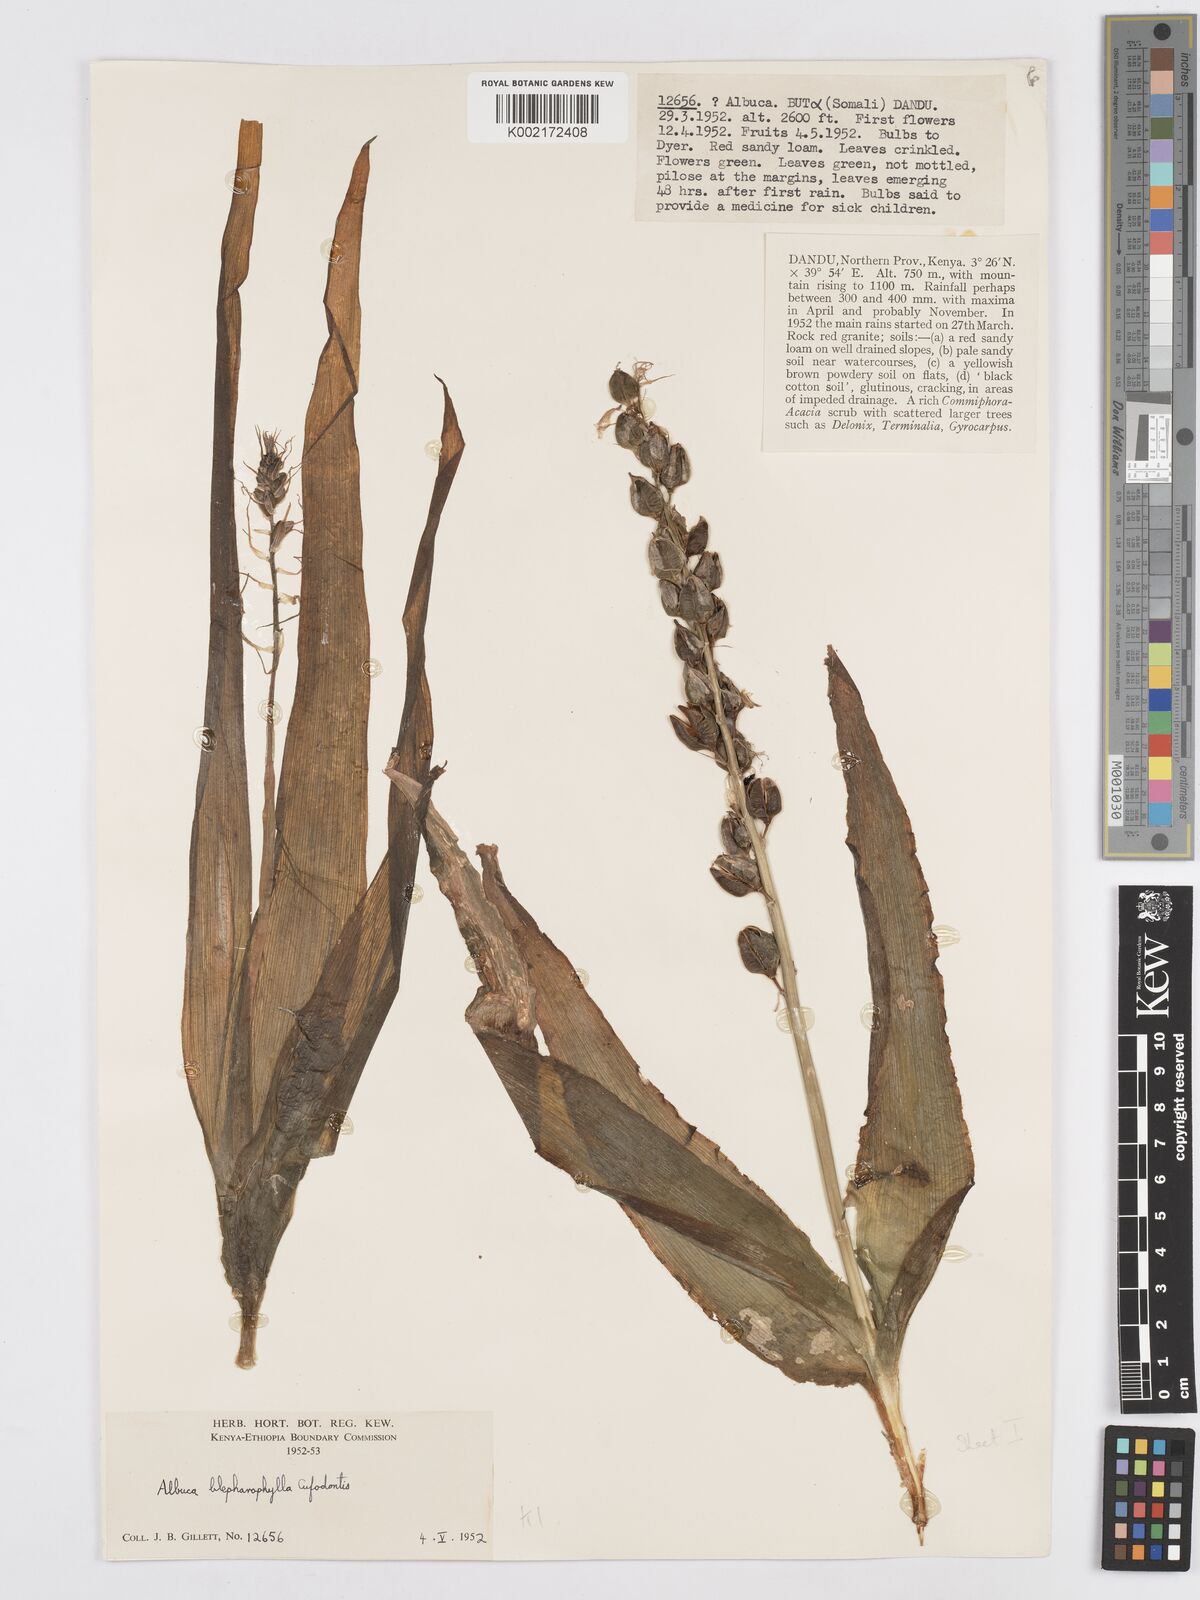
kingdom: Plantae
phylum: Tracheophyta
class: Liliopsida
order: Asparagales
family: Asparagaceae
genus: Albuca
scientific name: Albuca abyssinica
